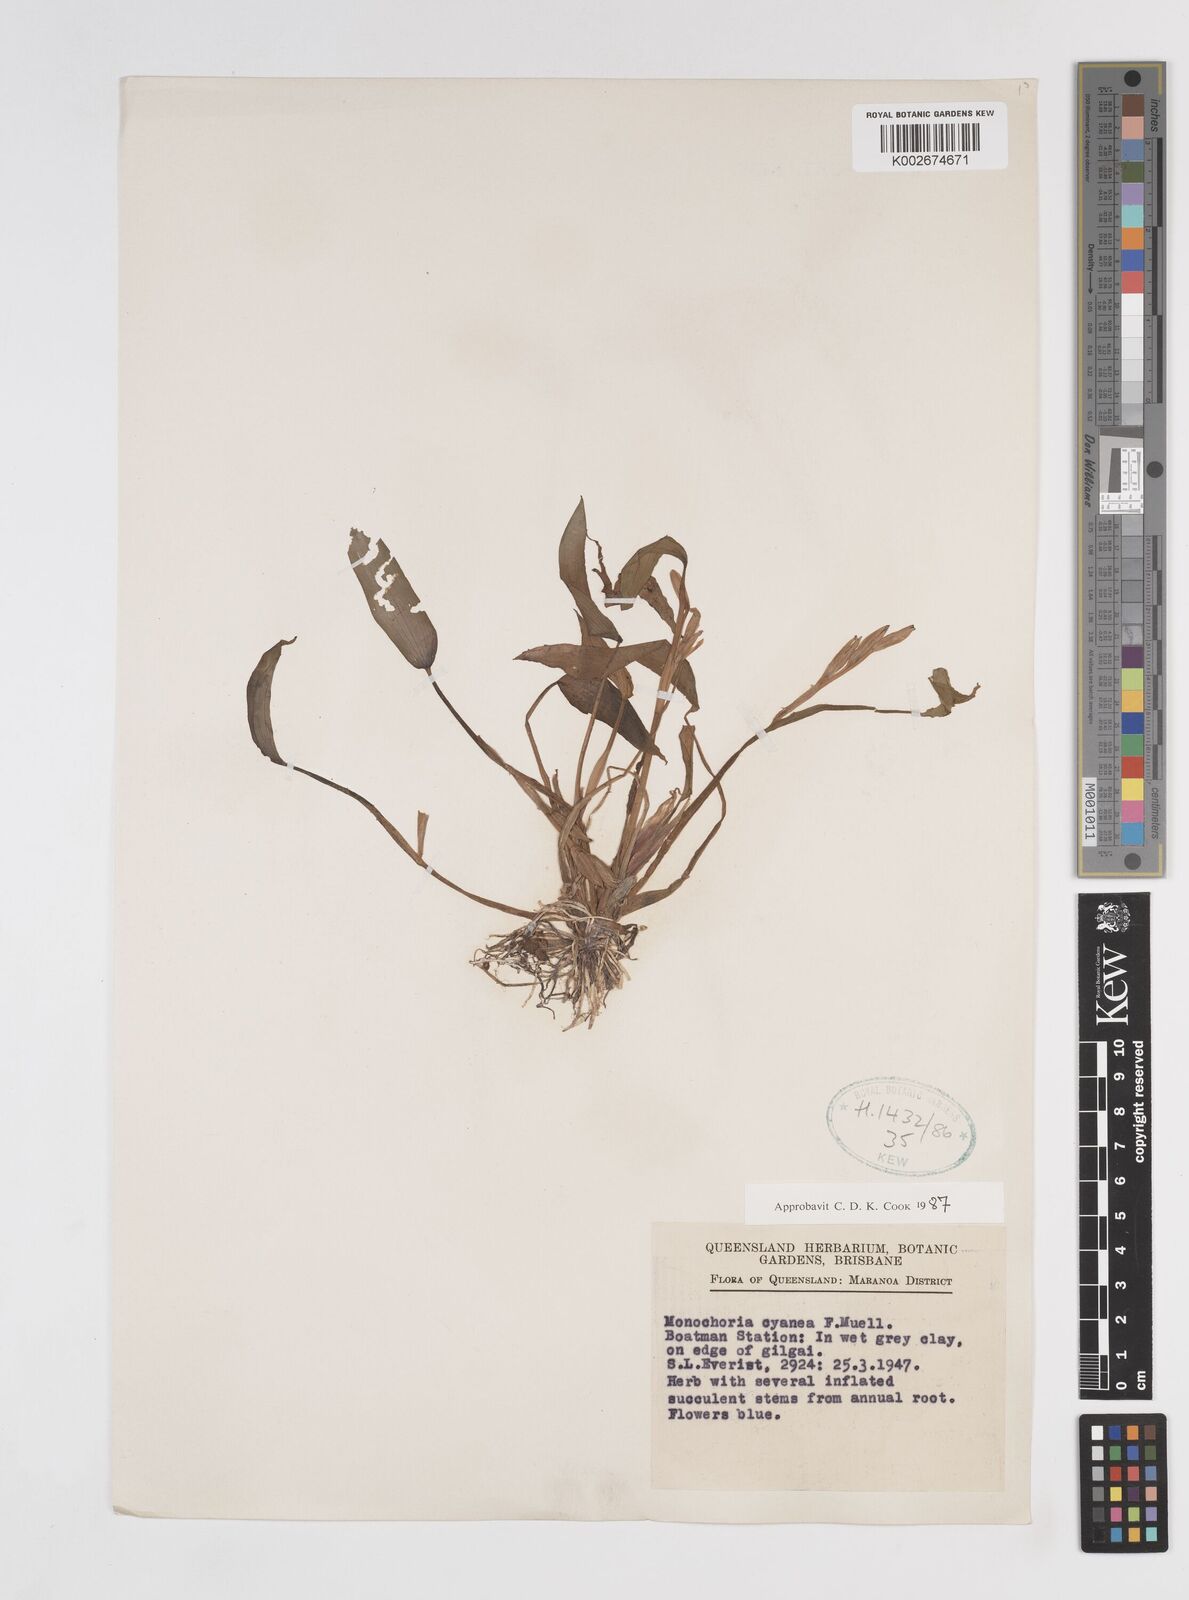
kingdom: Plantae
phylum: Tracheophyta
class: Liliopsida
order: Commelinales
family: Pontederiaceae
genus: Pontederia
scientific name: Pontederia cyanea
